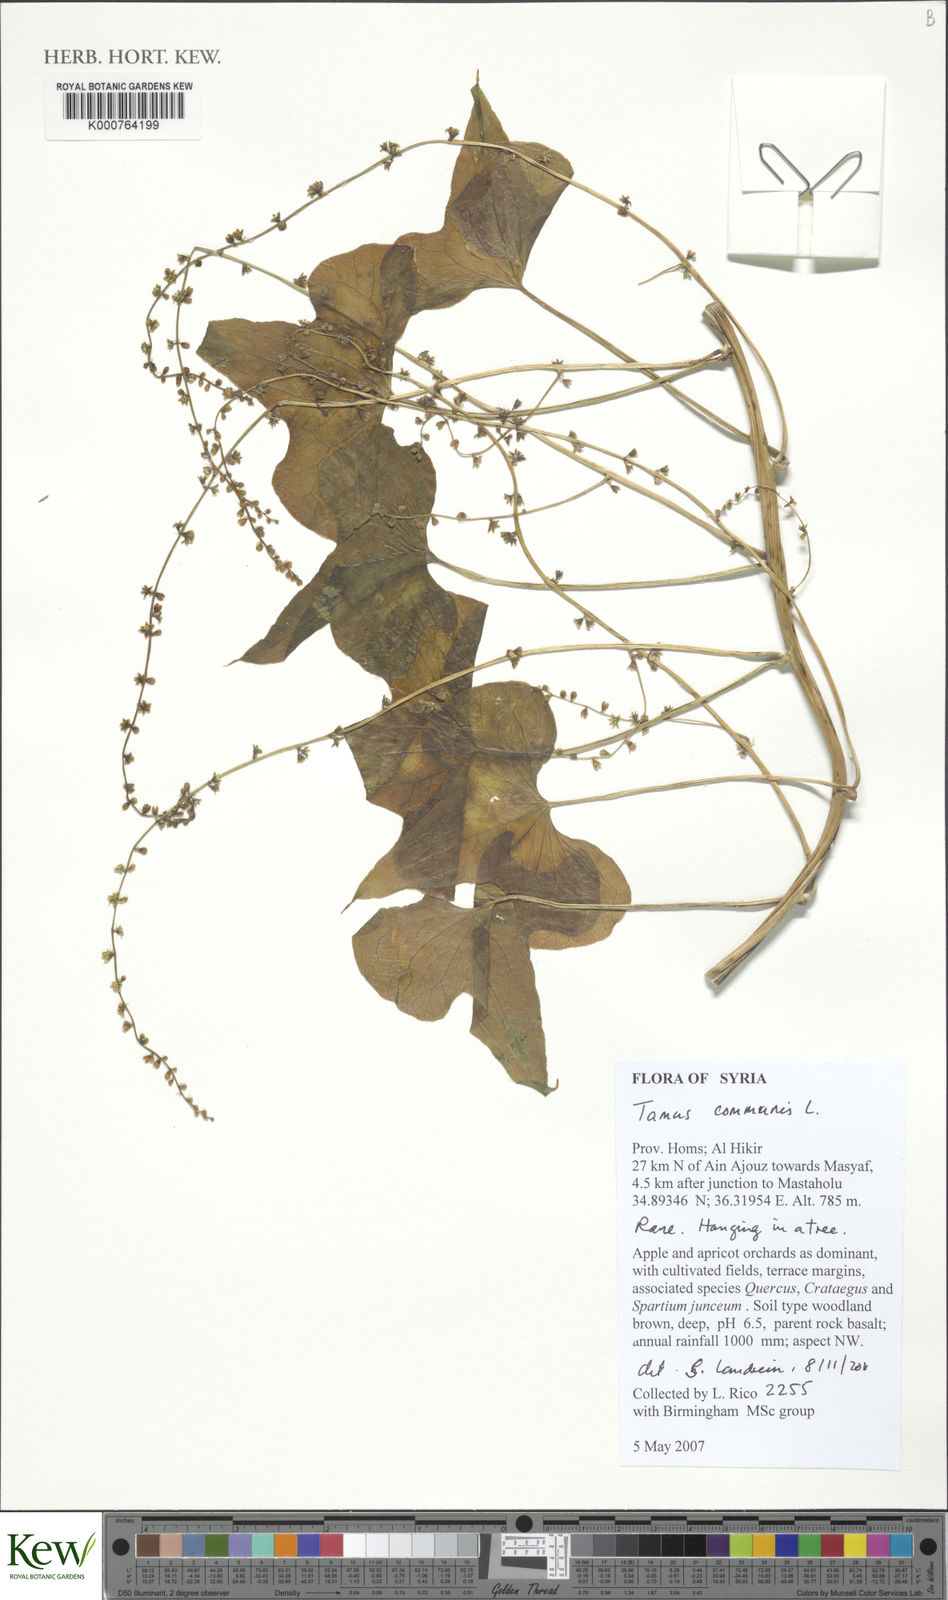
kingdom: Plantae
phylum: Tracheophyta
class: Liliopsida
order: Dioscoreales
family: Dioscoreaceae
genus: Dioscorea
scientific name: Dioscorea communis
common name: Black-bindweed
